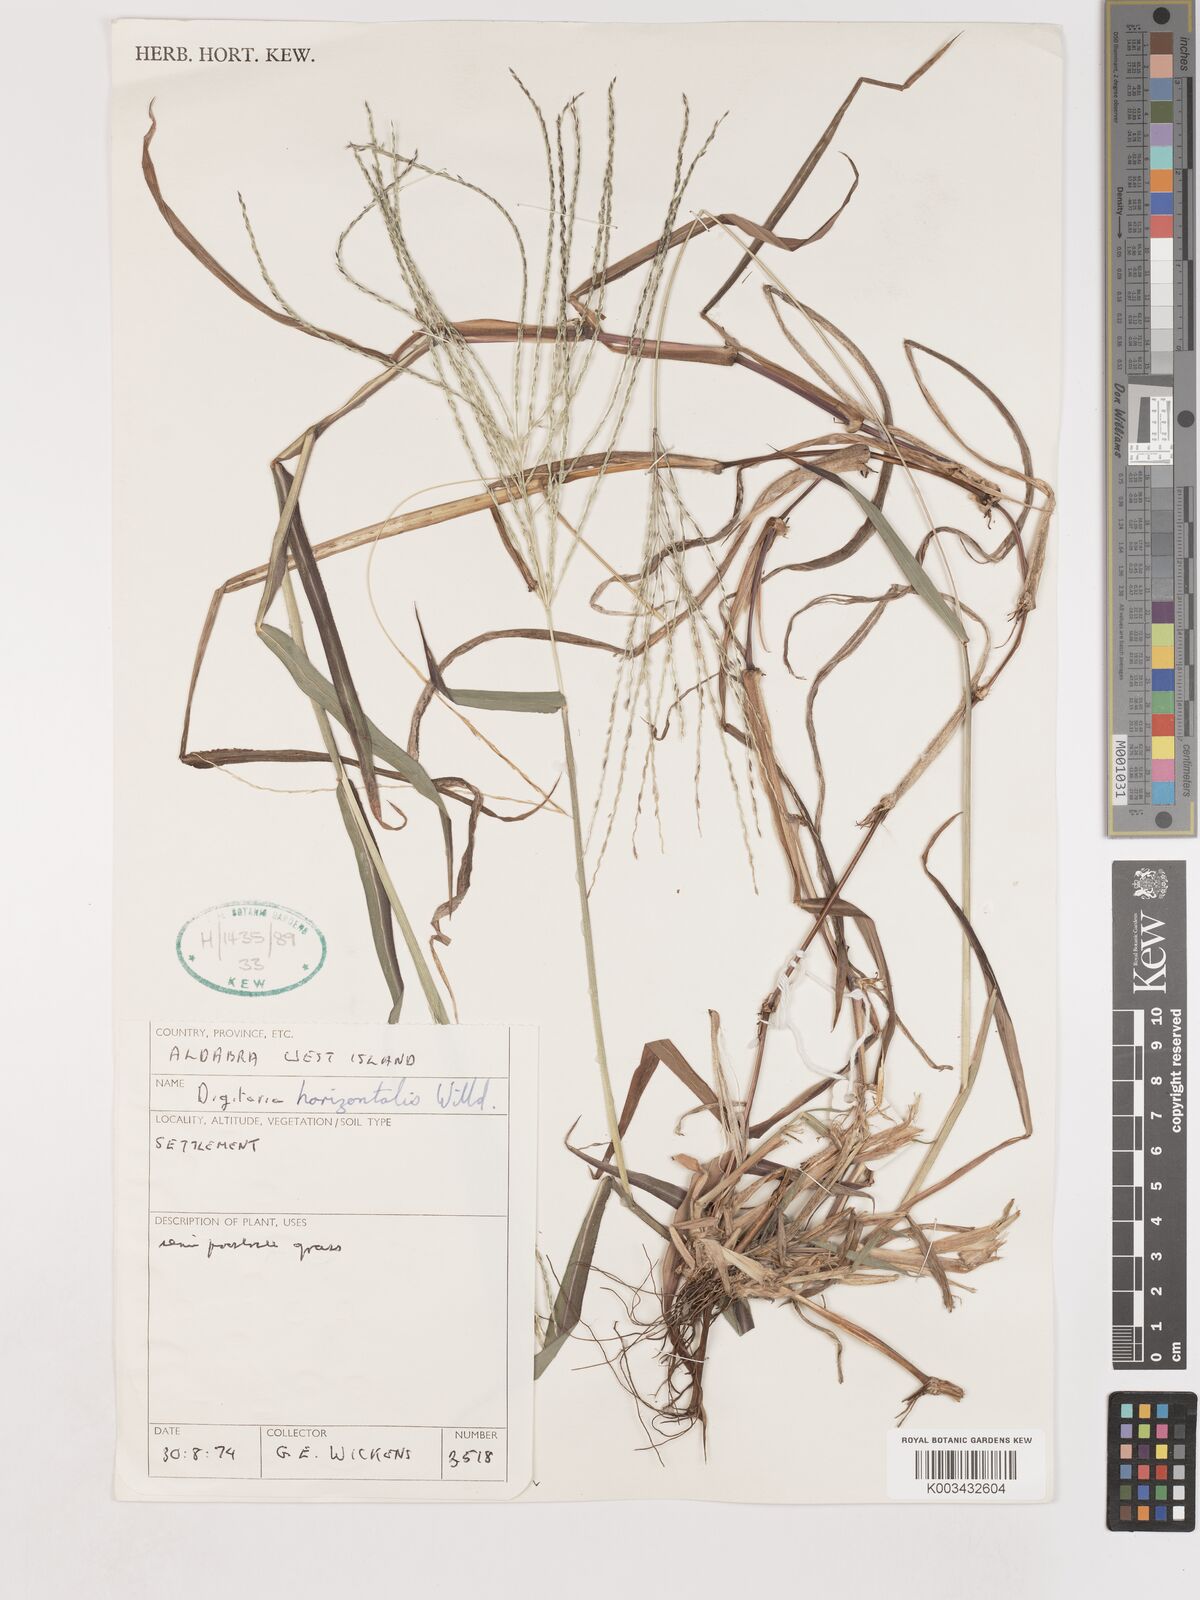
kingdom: Plantae
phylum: Tracheophyta
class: Liliopsida
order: Poales
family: Poaceae
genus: Digitaria
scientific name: Digitaria horizontalis
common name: Jamaican crabgrass
